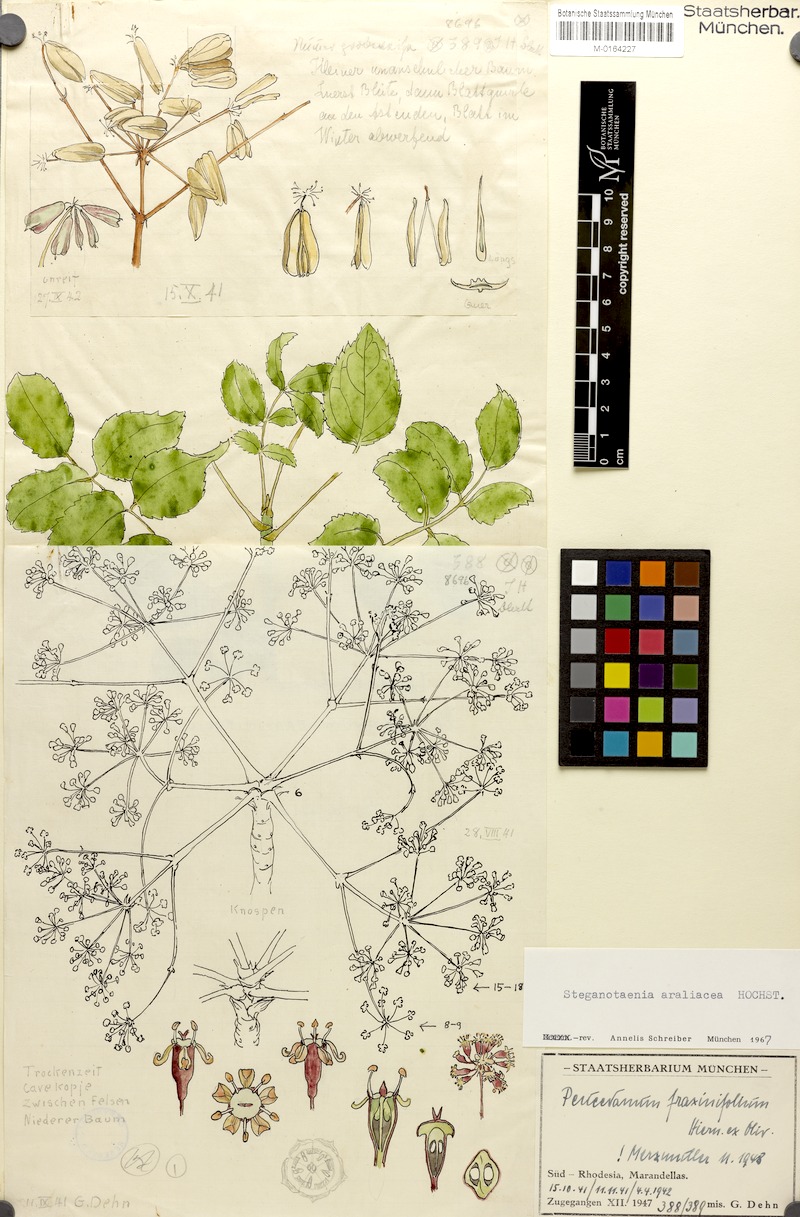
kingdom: Plantae
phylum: Tracheophyta
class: Magnoliopsida
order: Apiales
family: Apiaceae
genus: Steganotaenia
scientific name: Steganotaenia araliacea
